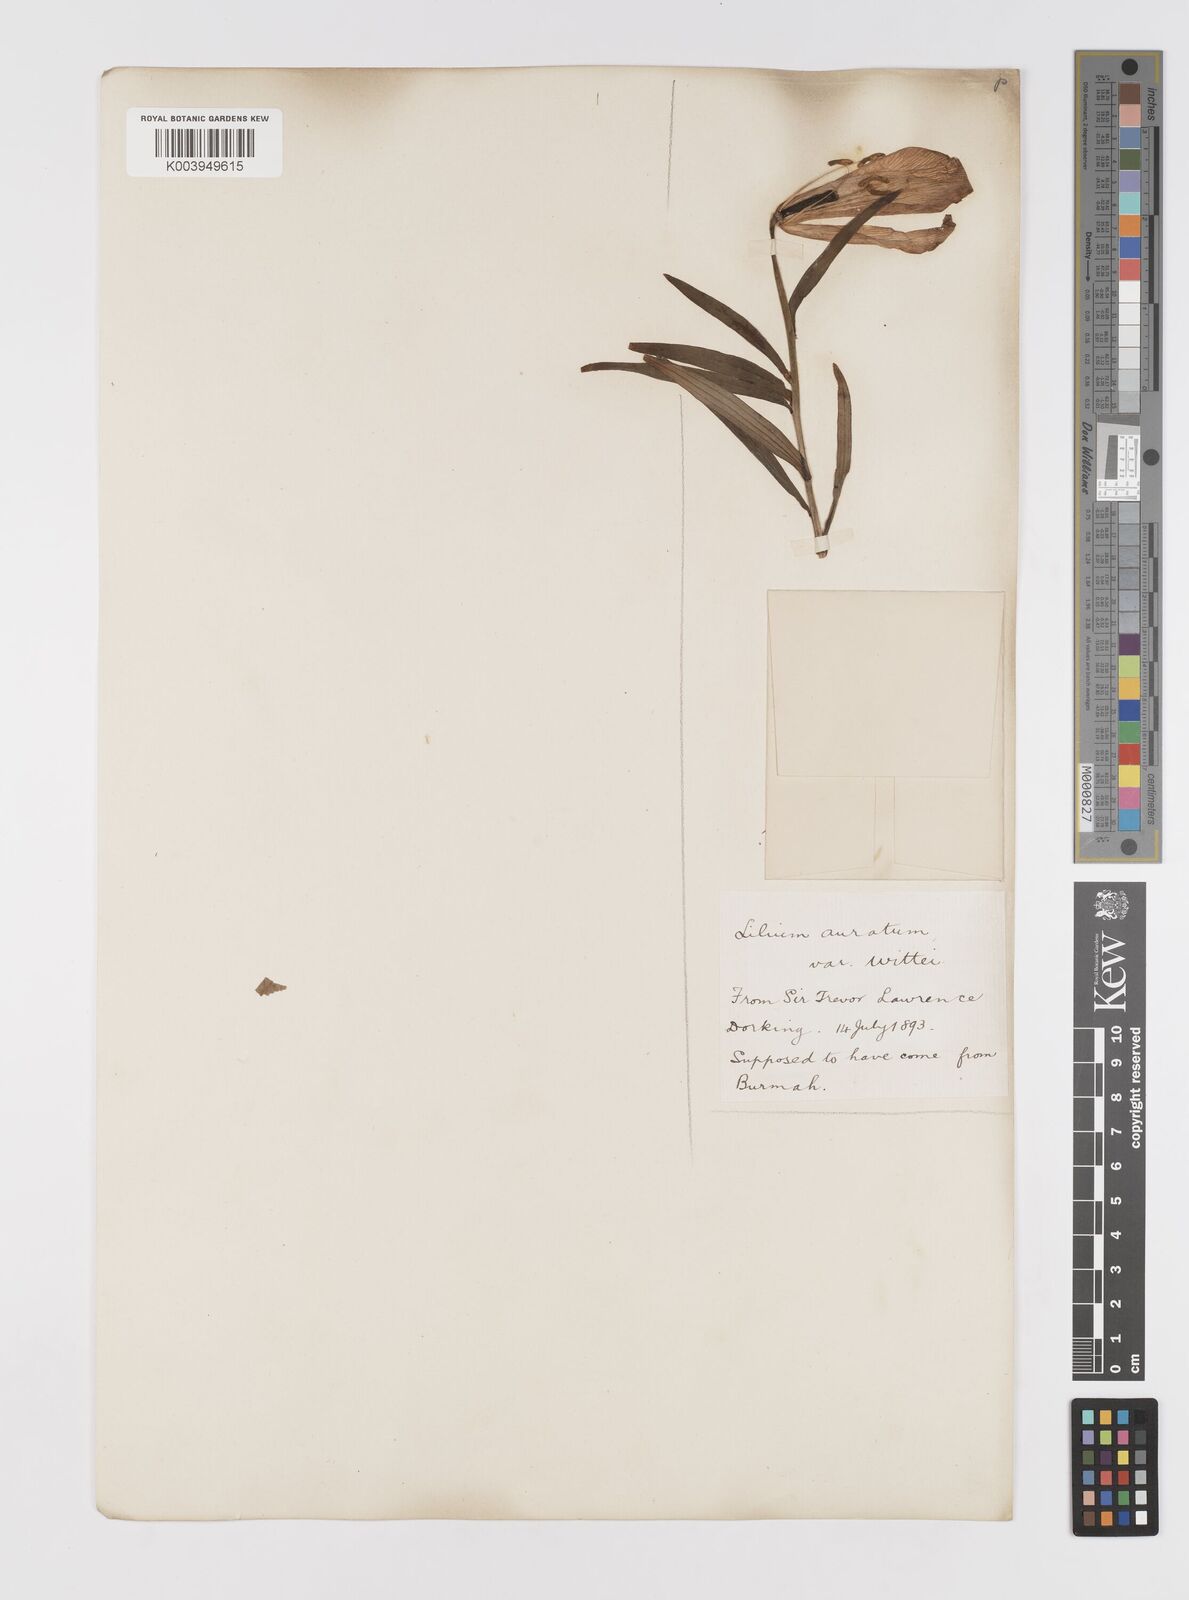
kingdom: Plantae
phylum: Tracheophyta
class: Liliopsida
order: Liliales
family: Liliaceae
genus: Lilium
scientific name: Lilium
